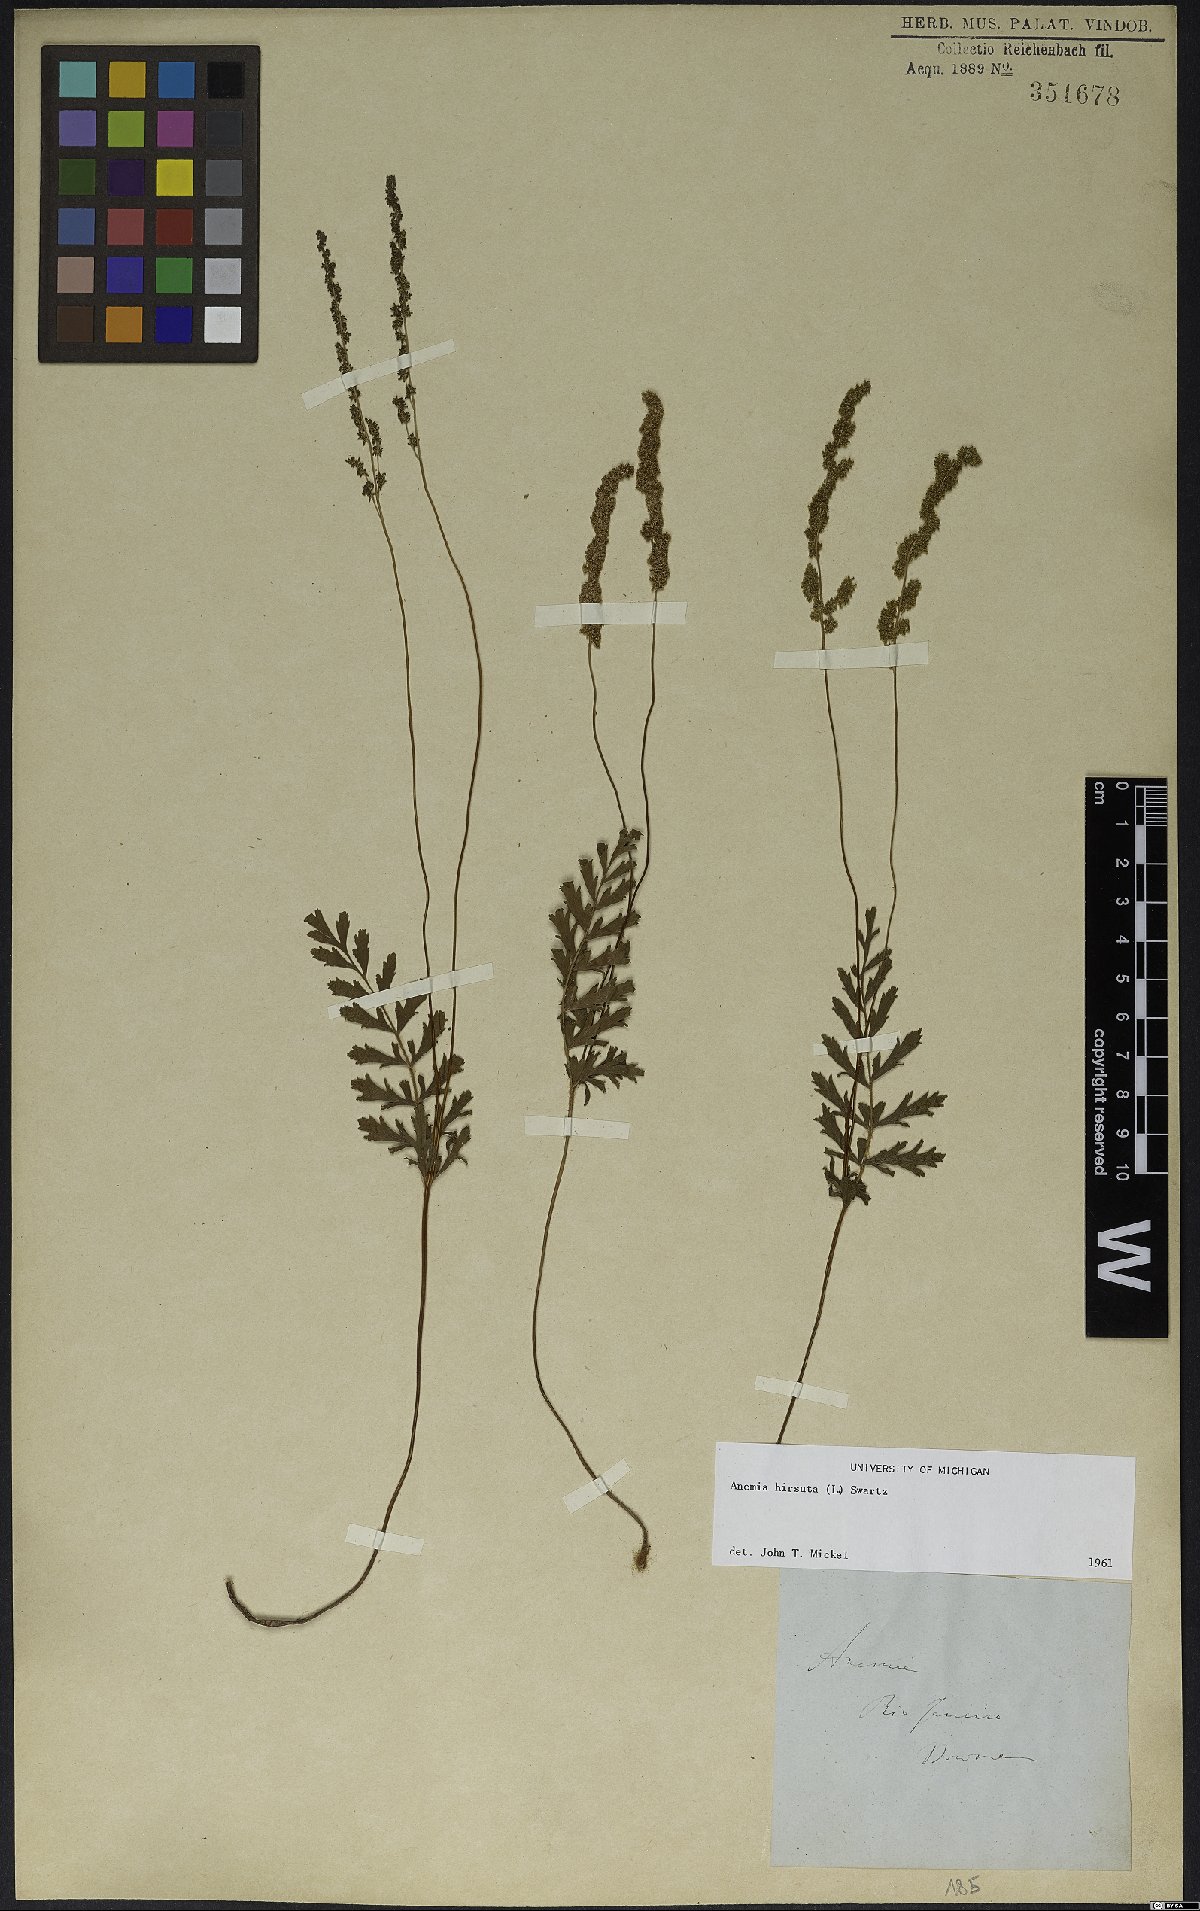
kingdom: Plantae
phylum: Tracheophyta
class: Polypodiopsida
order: Schizaeales
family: Anemiaceae
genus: Anemia
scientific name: Anemia hirsuta
